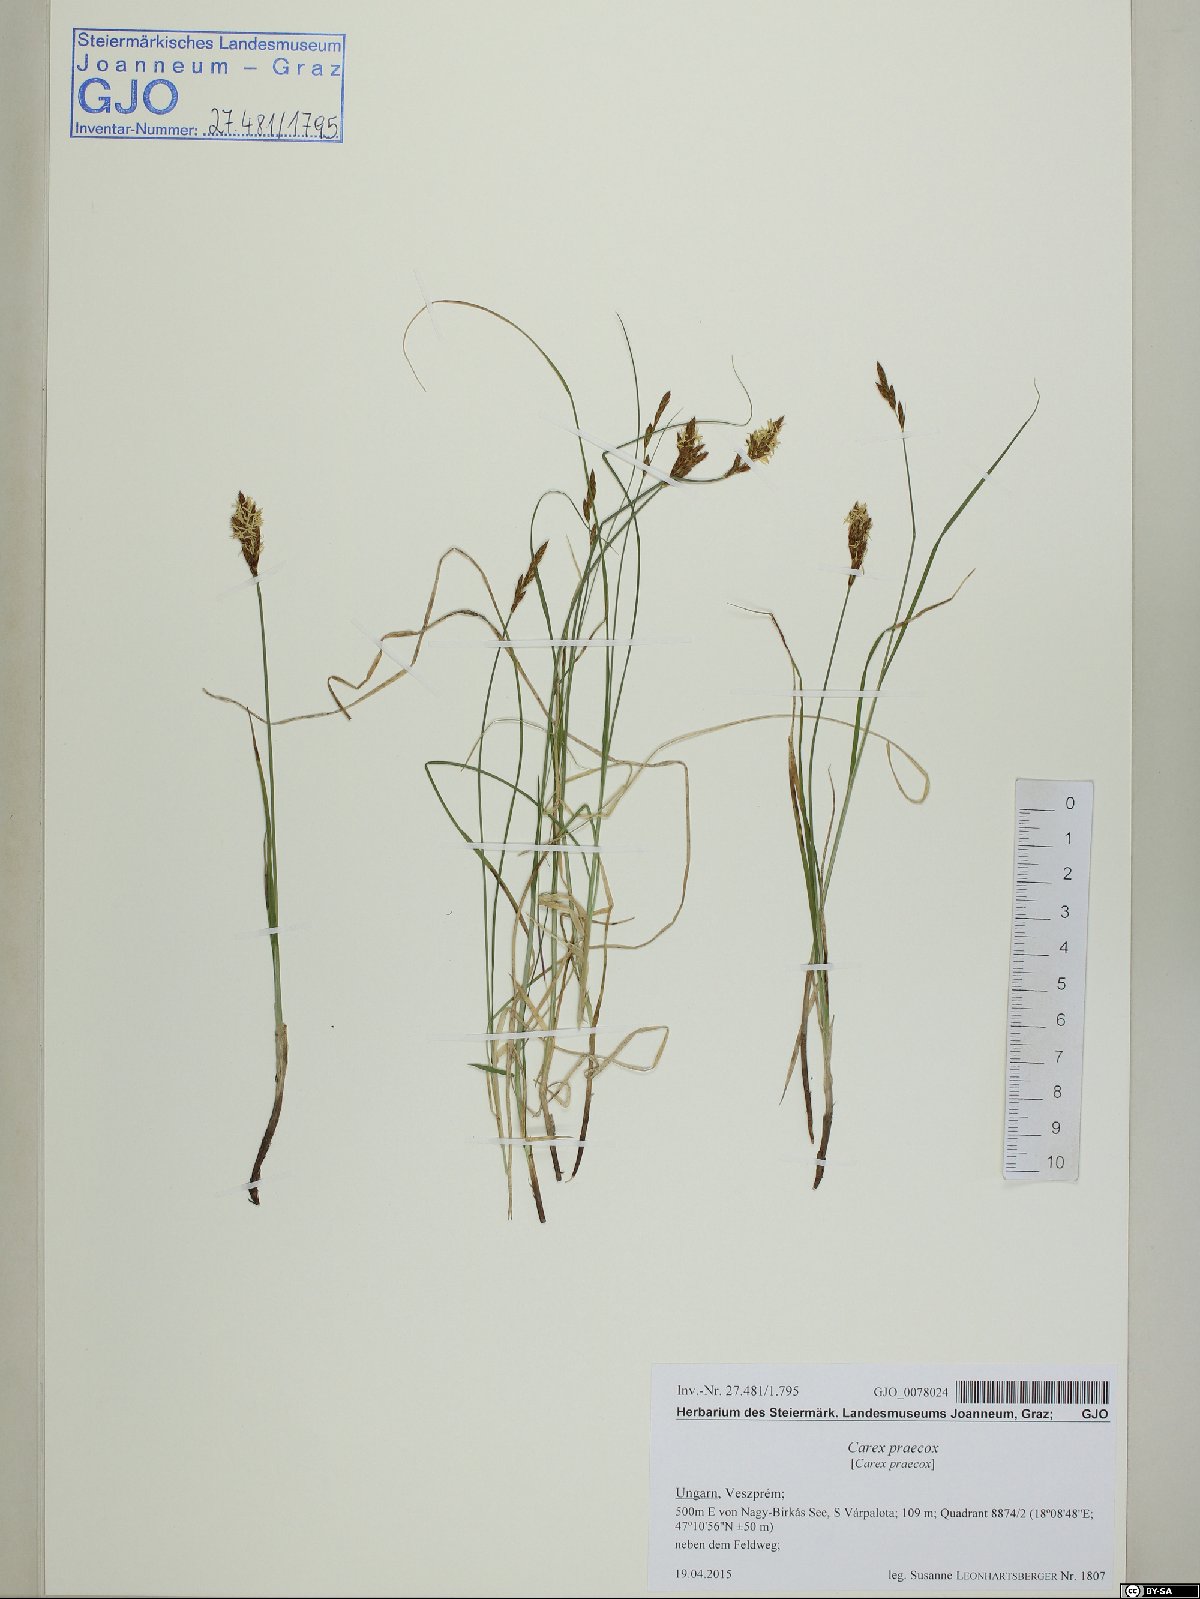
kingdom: Plantae
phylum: Tracheophyta
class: Liliopsida
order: Poales
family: Cyperaceae
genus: Carex
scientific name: Carex praecox
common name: Early sedge
